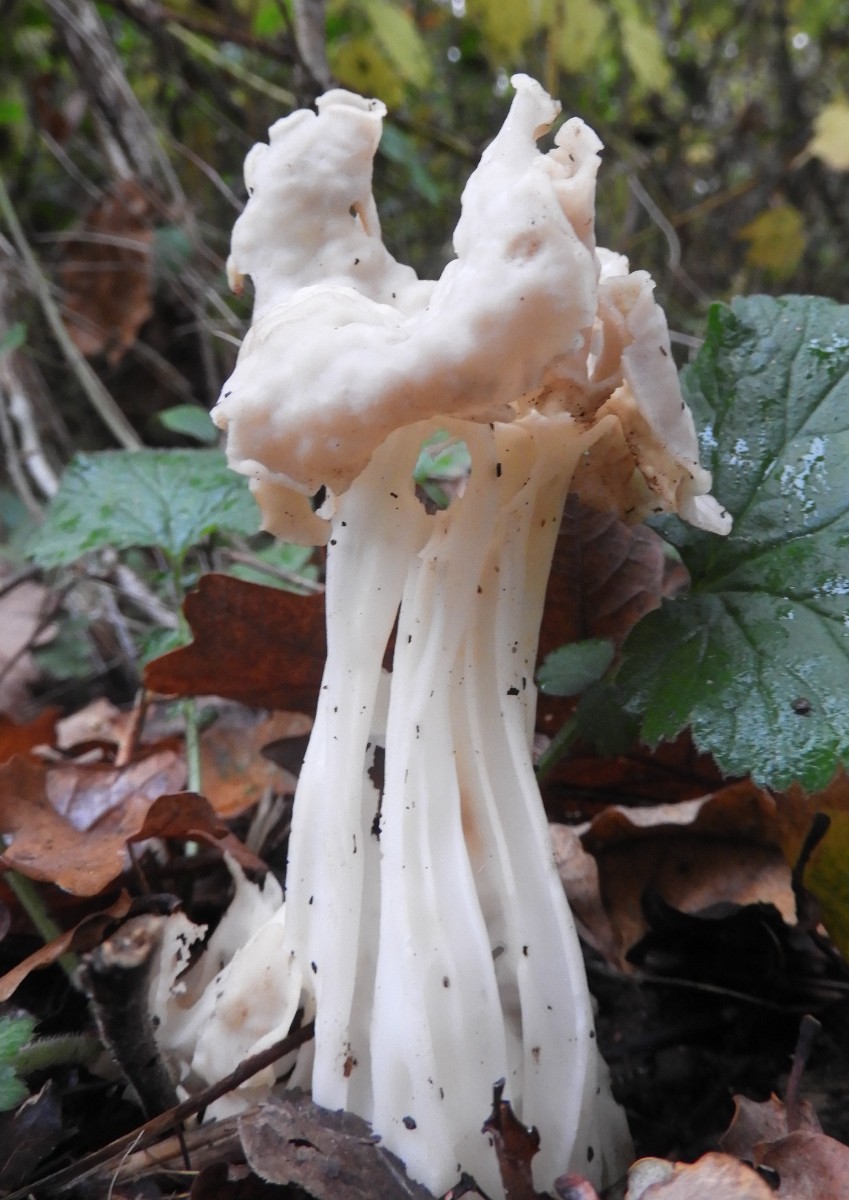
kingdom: Fungi
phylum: Ascomycota
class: Pezizomycetes
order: Pezizales
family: Helvellaceae
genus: Helvella
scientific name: Helvella crispa
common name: kruset foldhat
